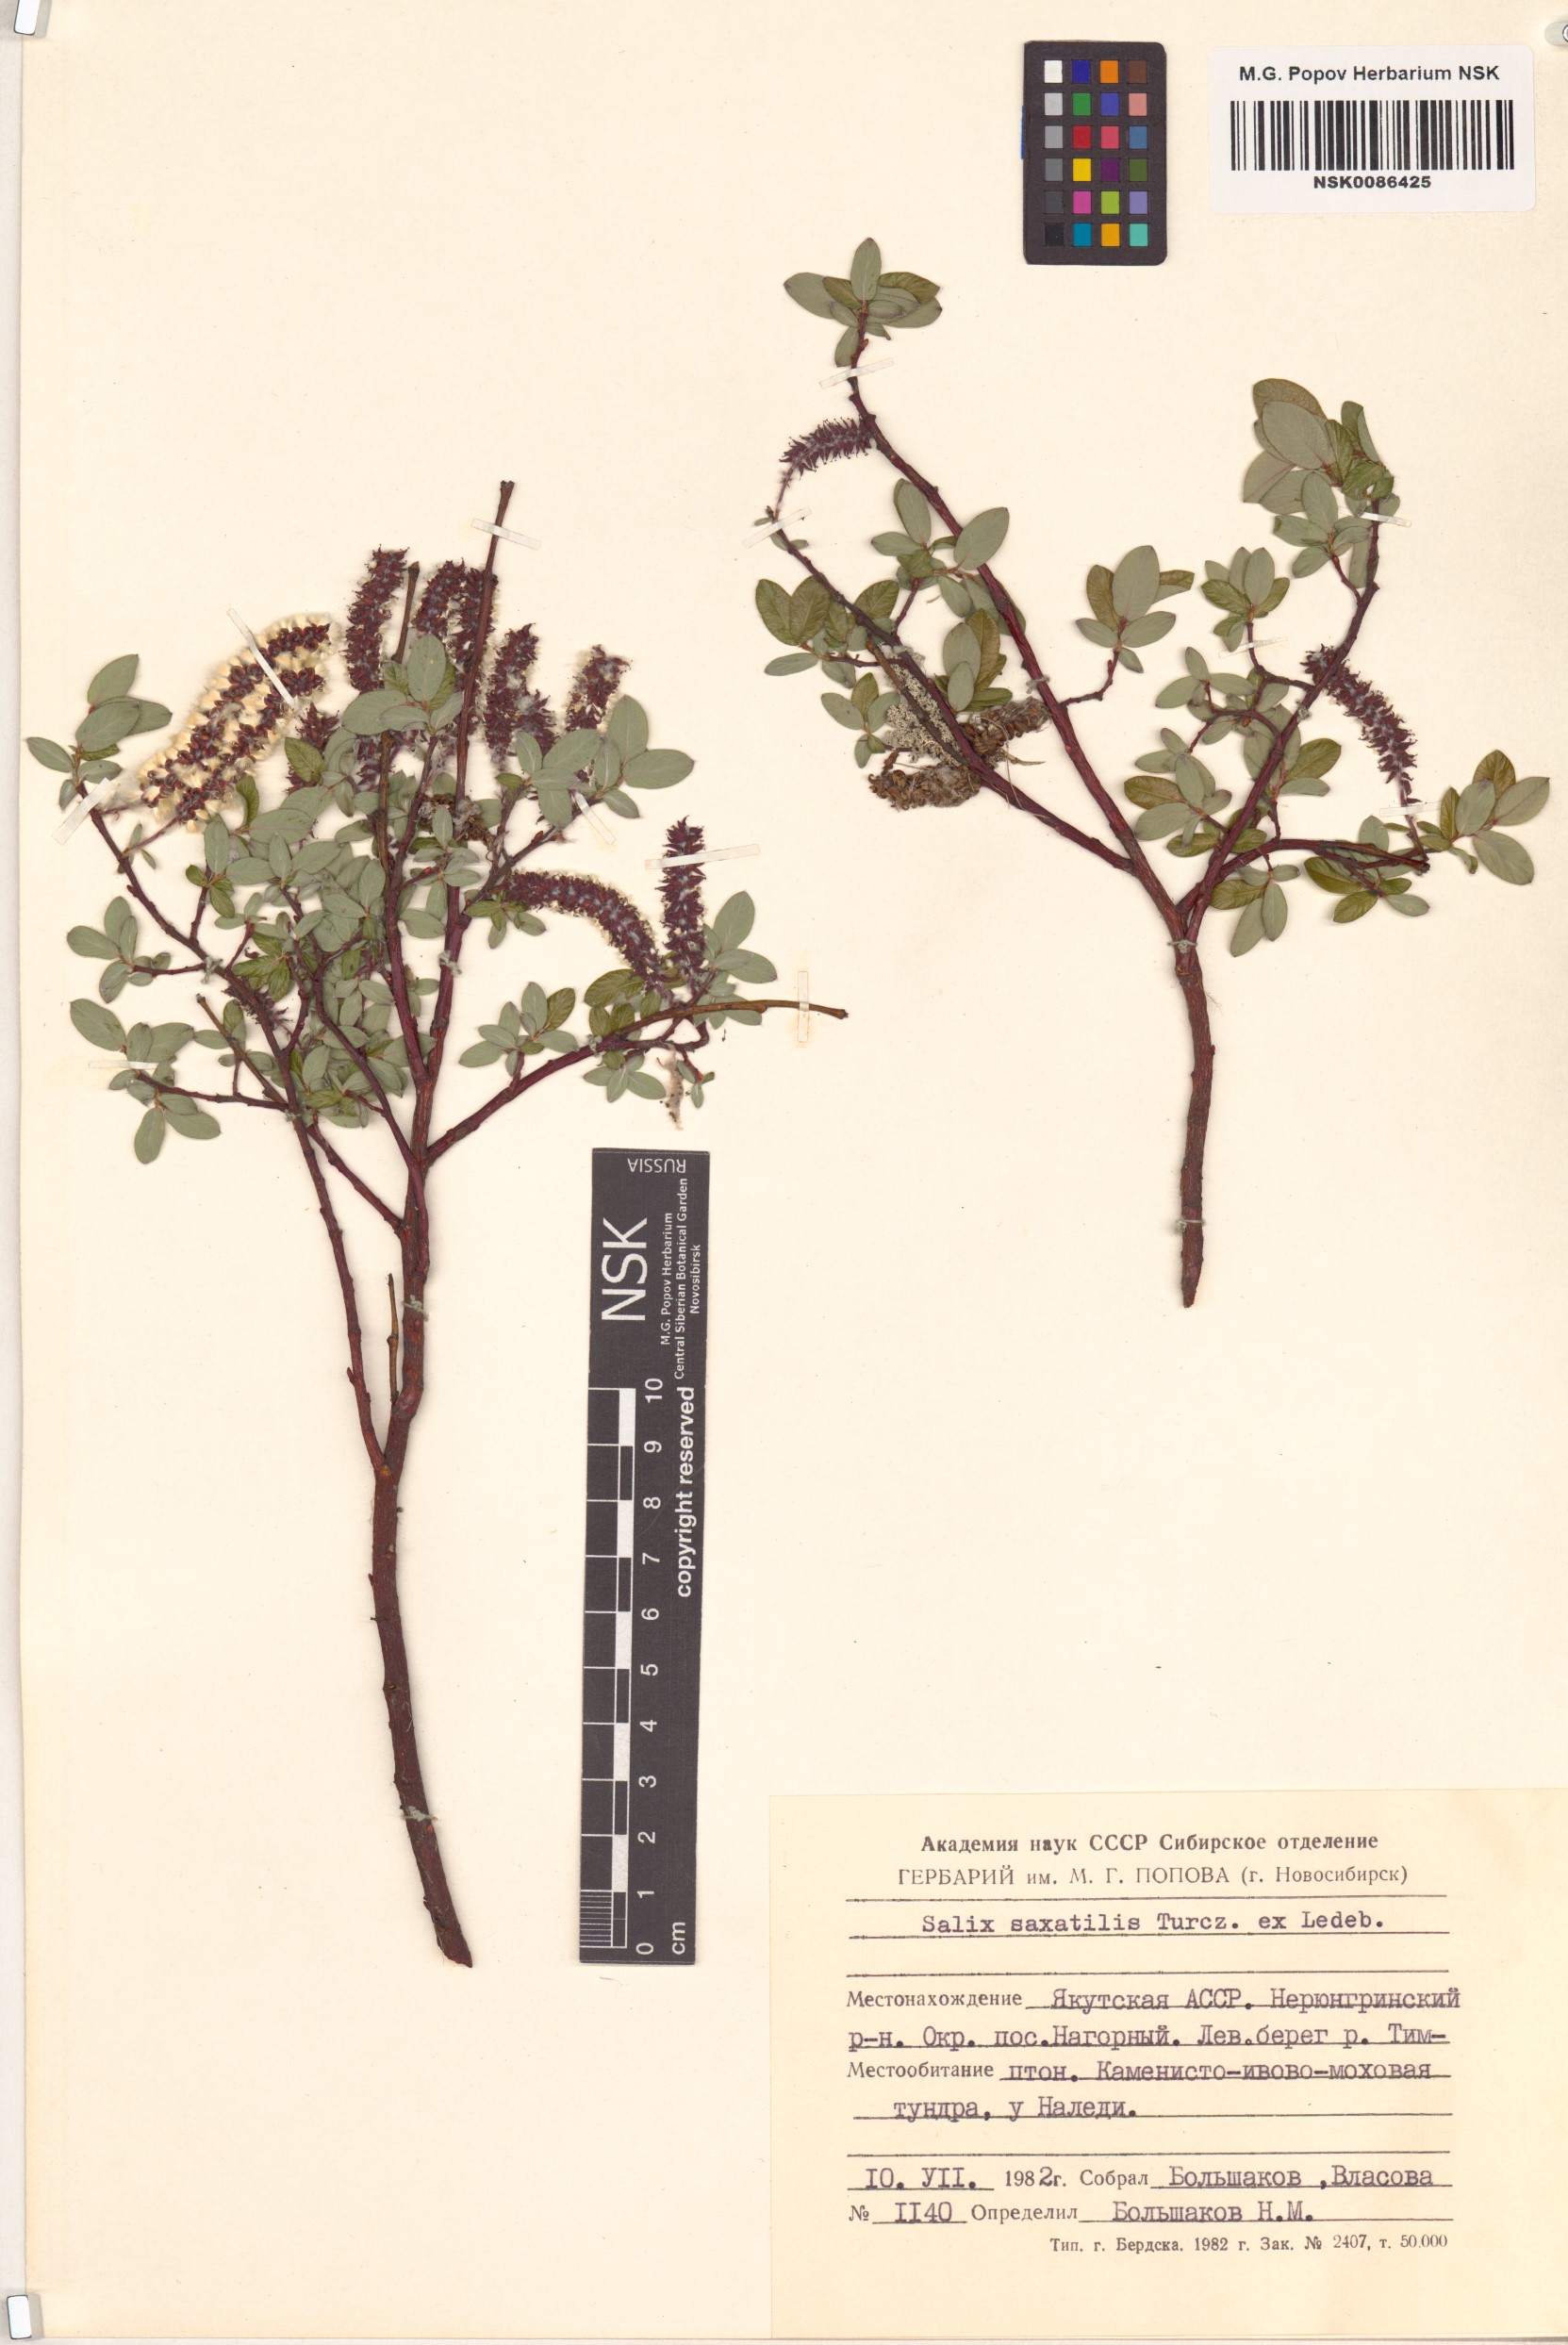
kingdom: Plantae
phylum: Tracheophyta
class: Magnoliopsida
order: Malpighiales
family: Salicaceae
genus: Salix
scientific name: Salix saxatilis
